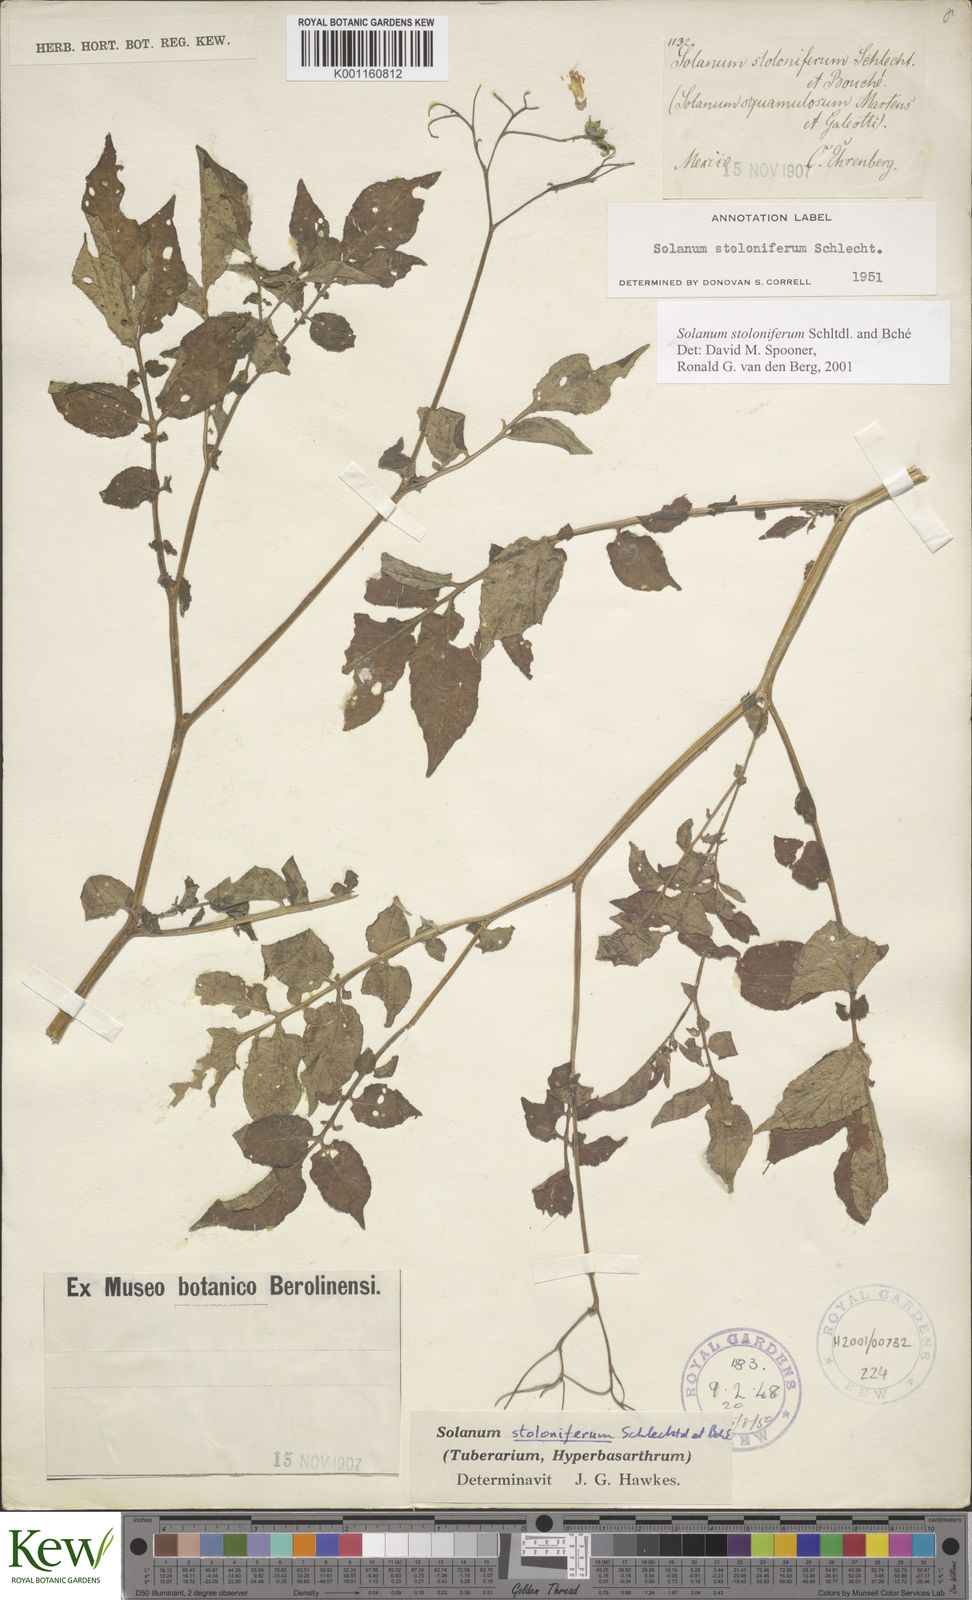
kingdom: Plantae
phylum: Tracheophyta
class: Magnoliopsida
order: Solanales
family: Solanaceae
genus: Solanum
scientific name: Solanum stoloniferum
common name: Fendler's nighshade
